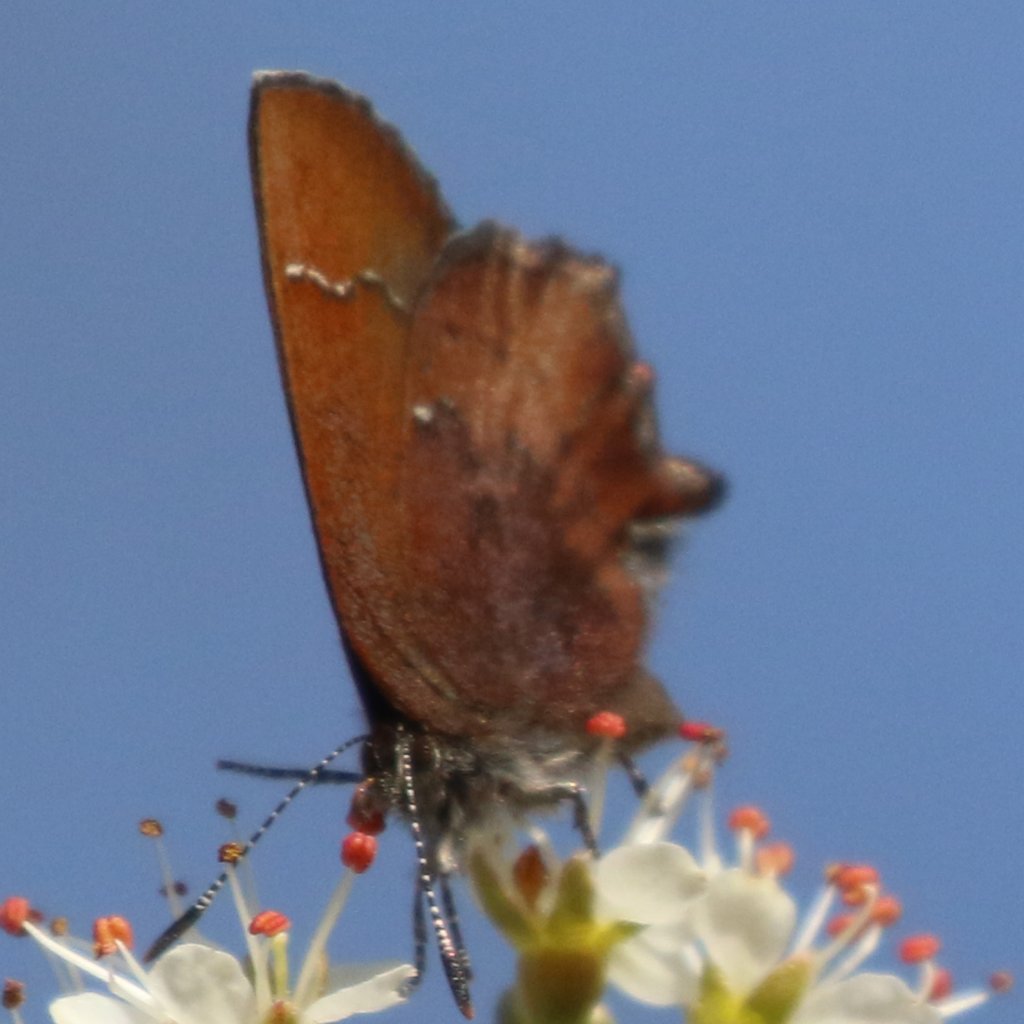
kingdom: Animalia
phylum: Arthropoda
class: Insecta
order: Lepidoptera
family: Lycaenidae
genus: Incisalia
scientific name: Incisalia irioides
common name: Brown Elfin
